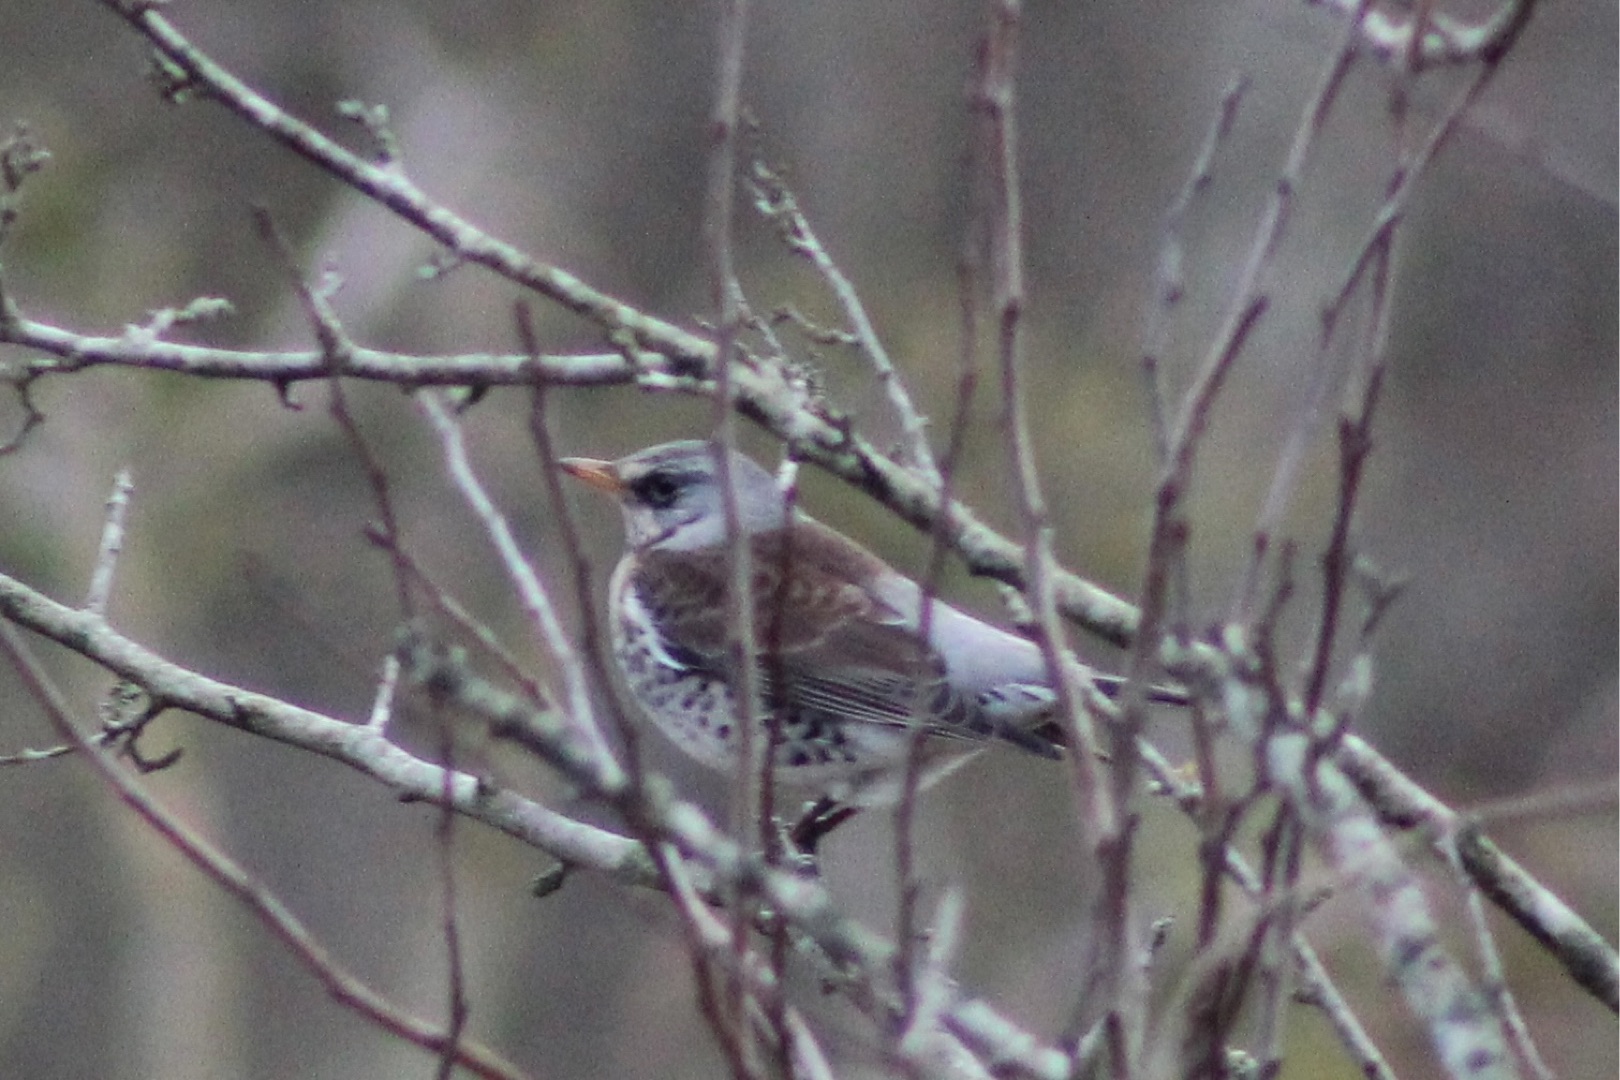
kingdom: Animalia
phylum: Chordata
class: Aves
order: Passeriformes
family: Turdidae
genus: Turdus
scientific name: Turdus pilaris
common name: Sjagger
